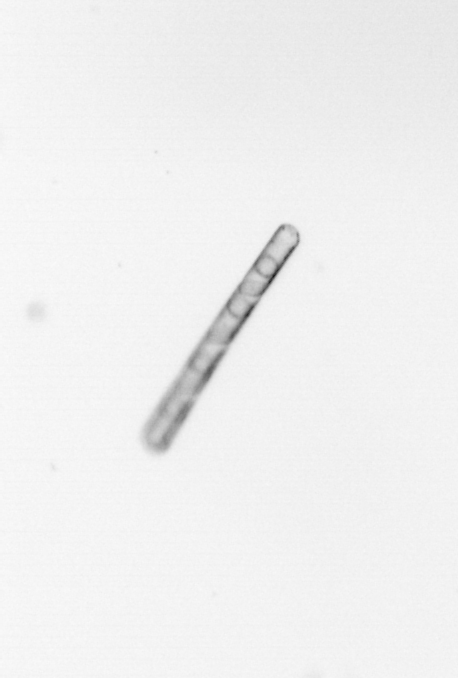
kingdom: Chromista
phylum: Ochrophyta
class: Bacillariophyceae
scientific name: Bacillariophyceae
